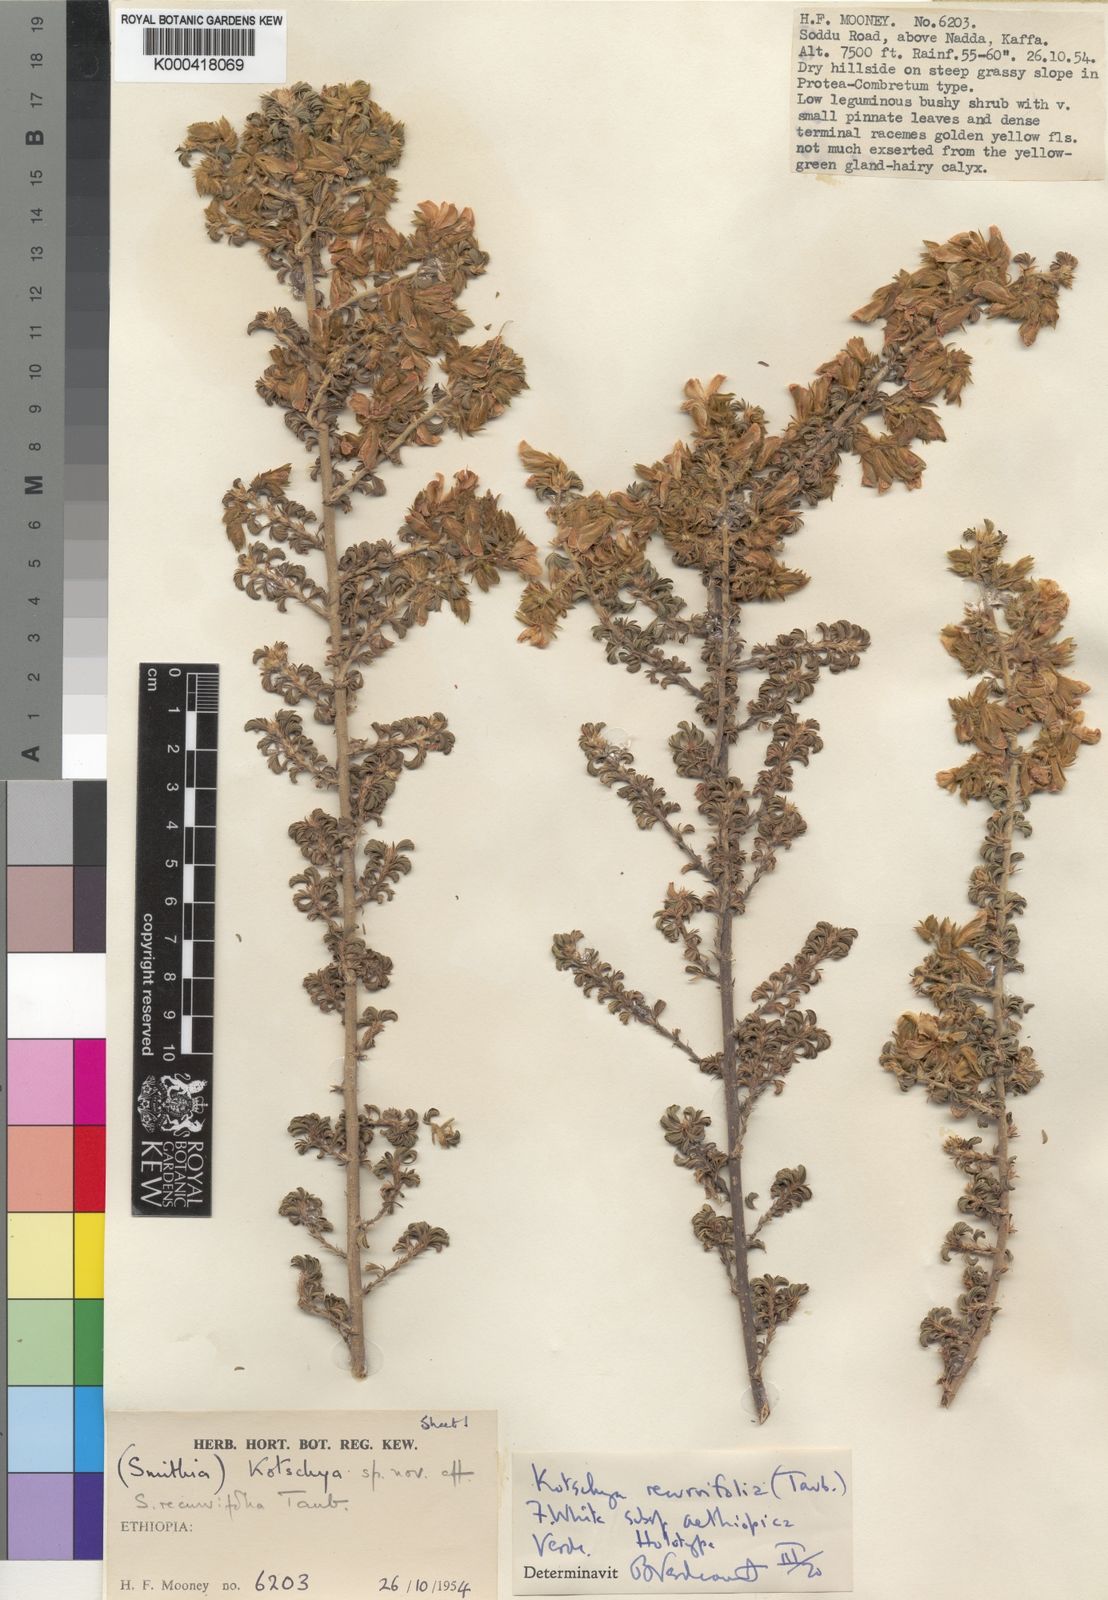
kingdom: Plantae
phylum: Tracheophyta
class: Magnoliopsida
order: Fabales
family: Fabaceae
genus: Kotschya
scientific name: Kotschya recurvifolia
